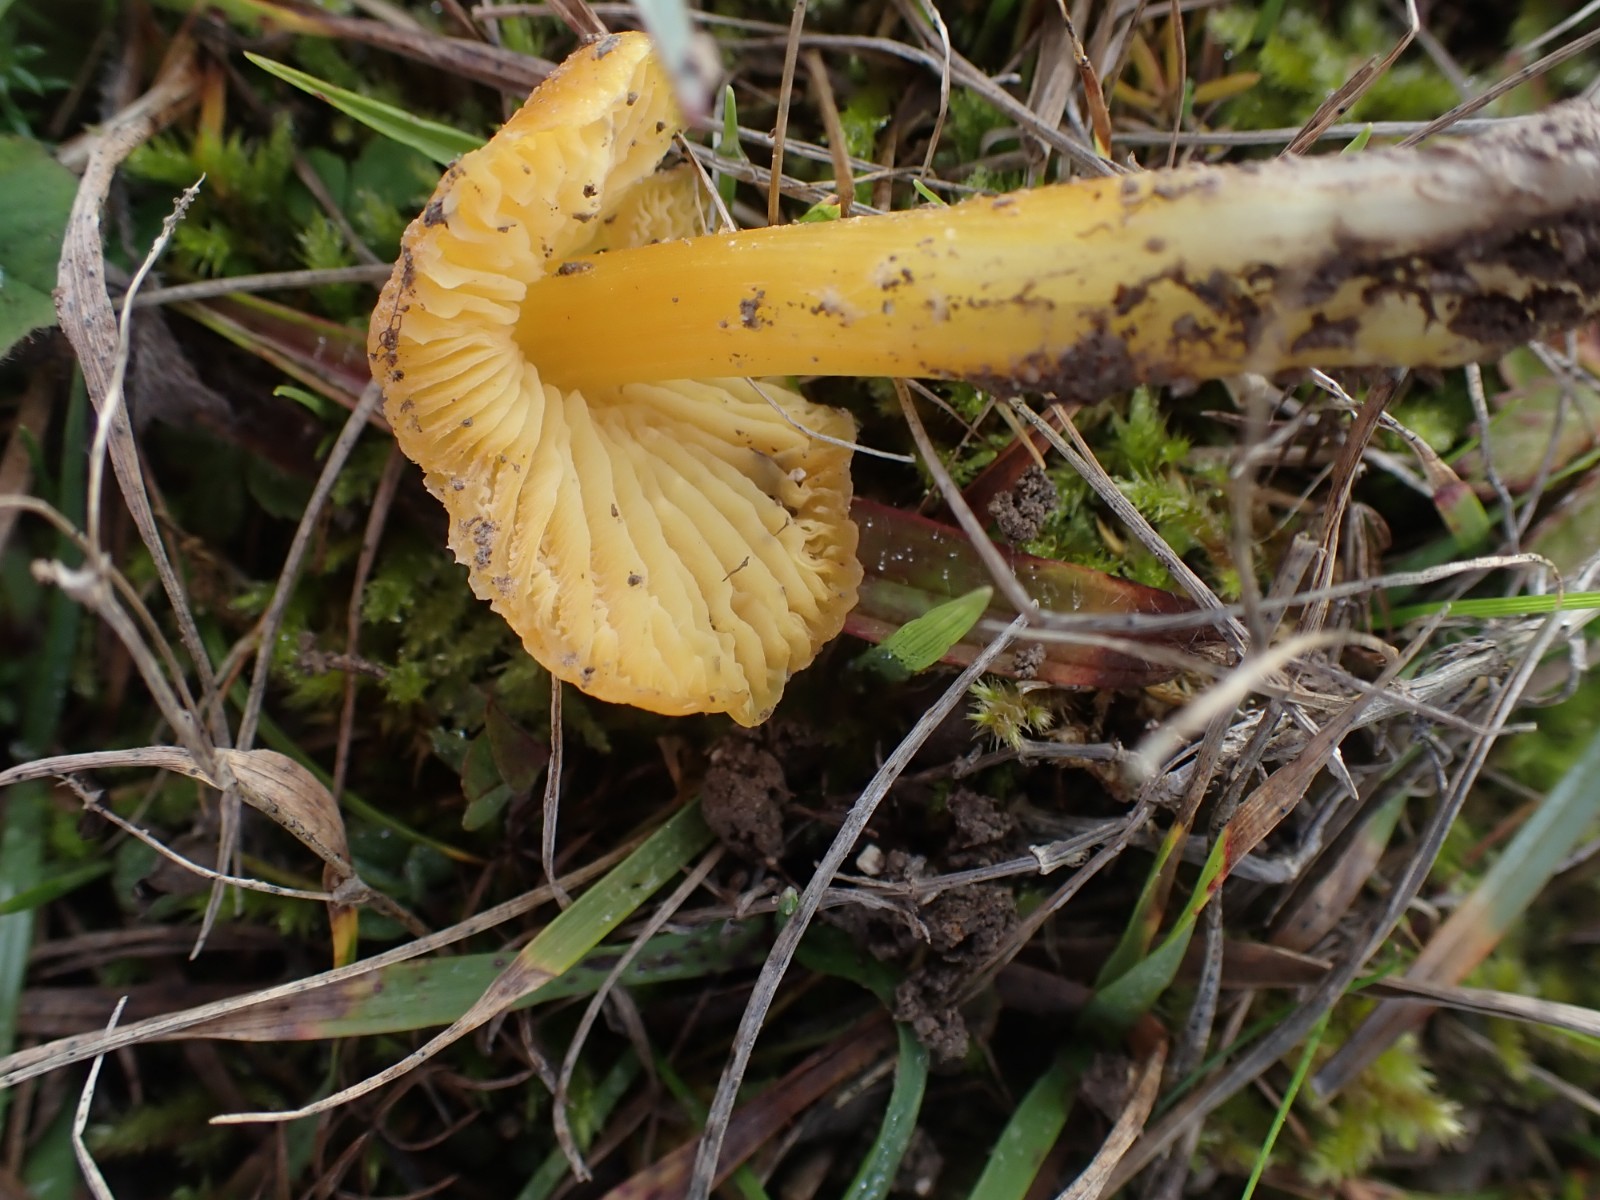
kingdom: Fungi
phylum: Basidiomycota
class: Agaricomycetes
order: Agaricales
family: Hygrophoraceae
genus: Hygrocybe
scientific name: Hygrocybe acutoconica
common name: spidspuklet vokshat
